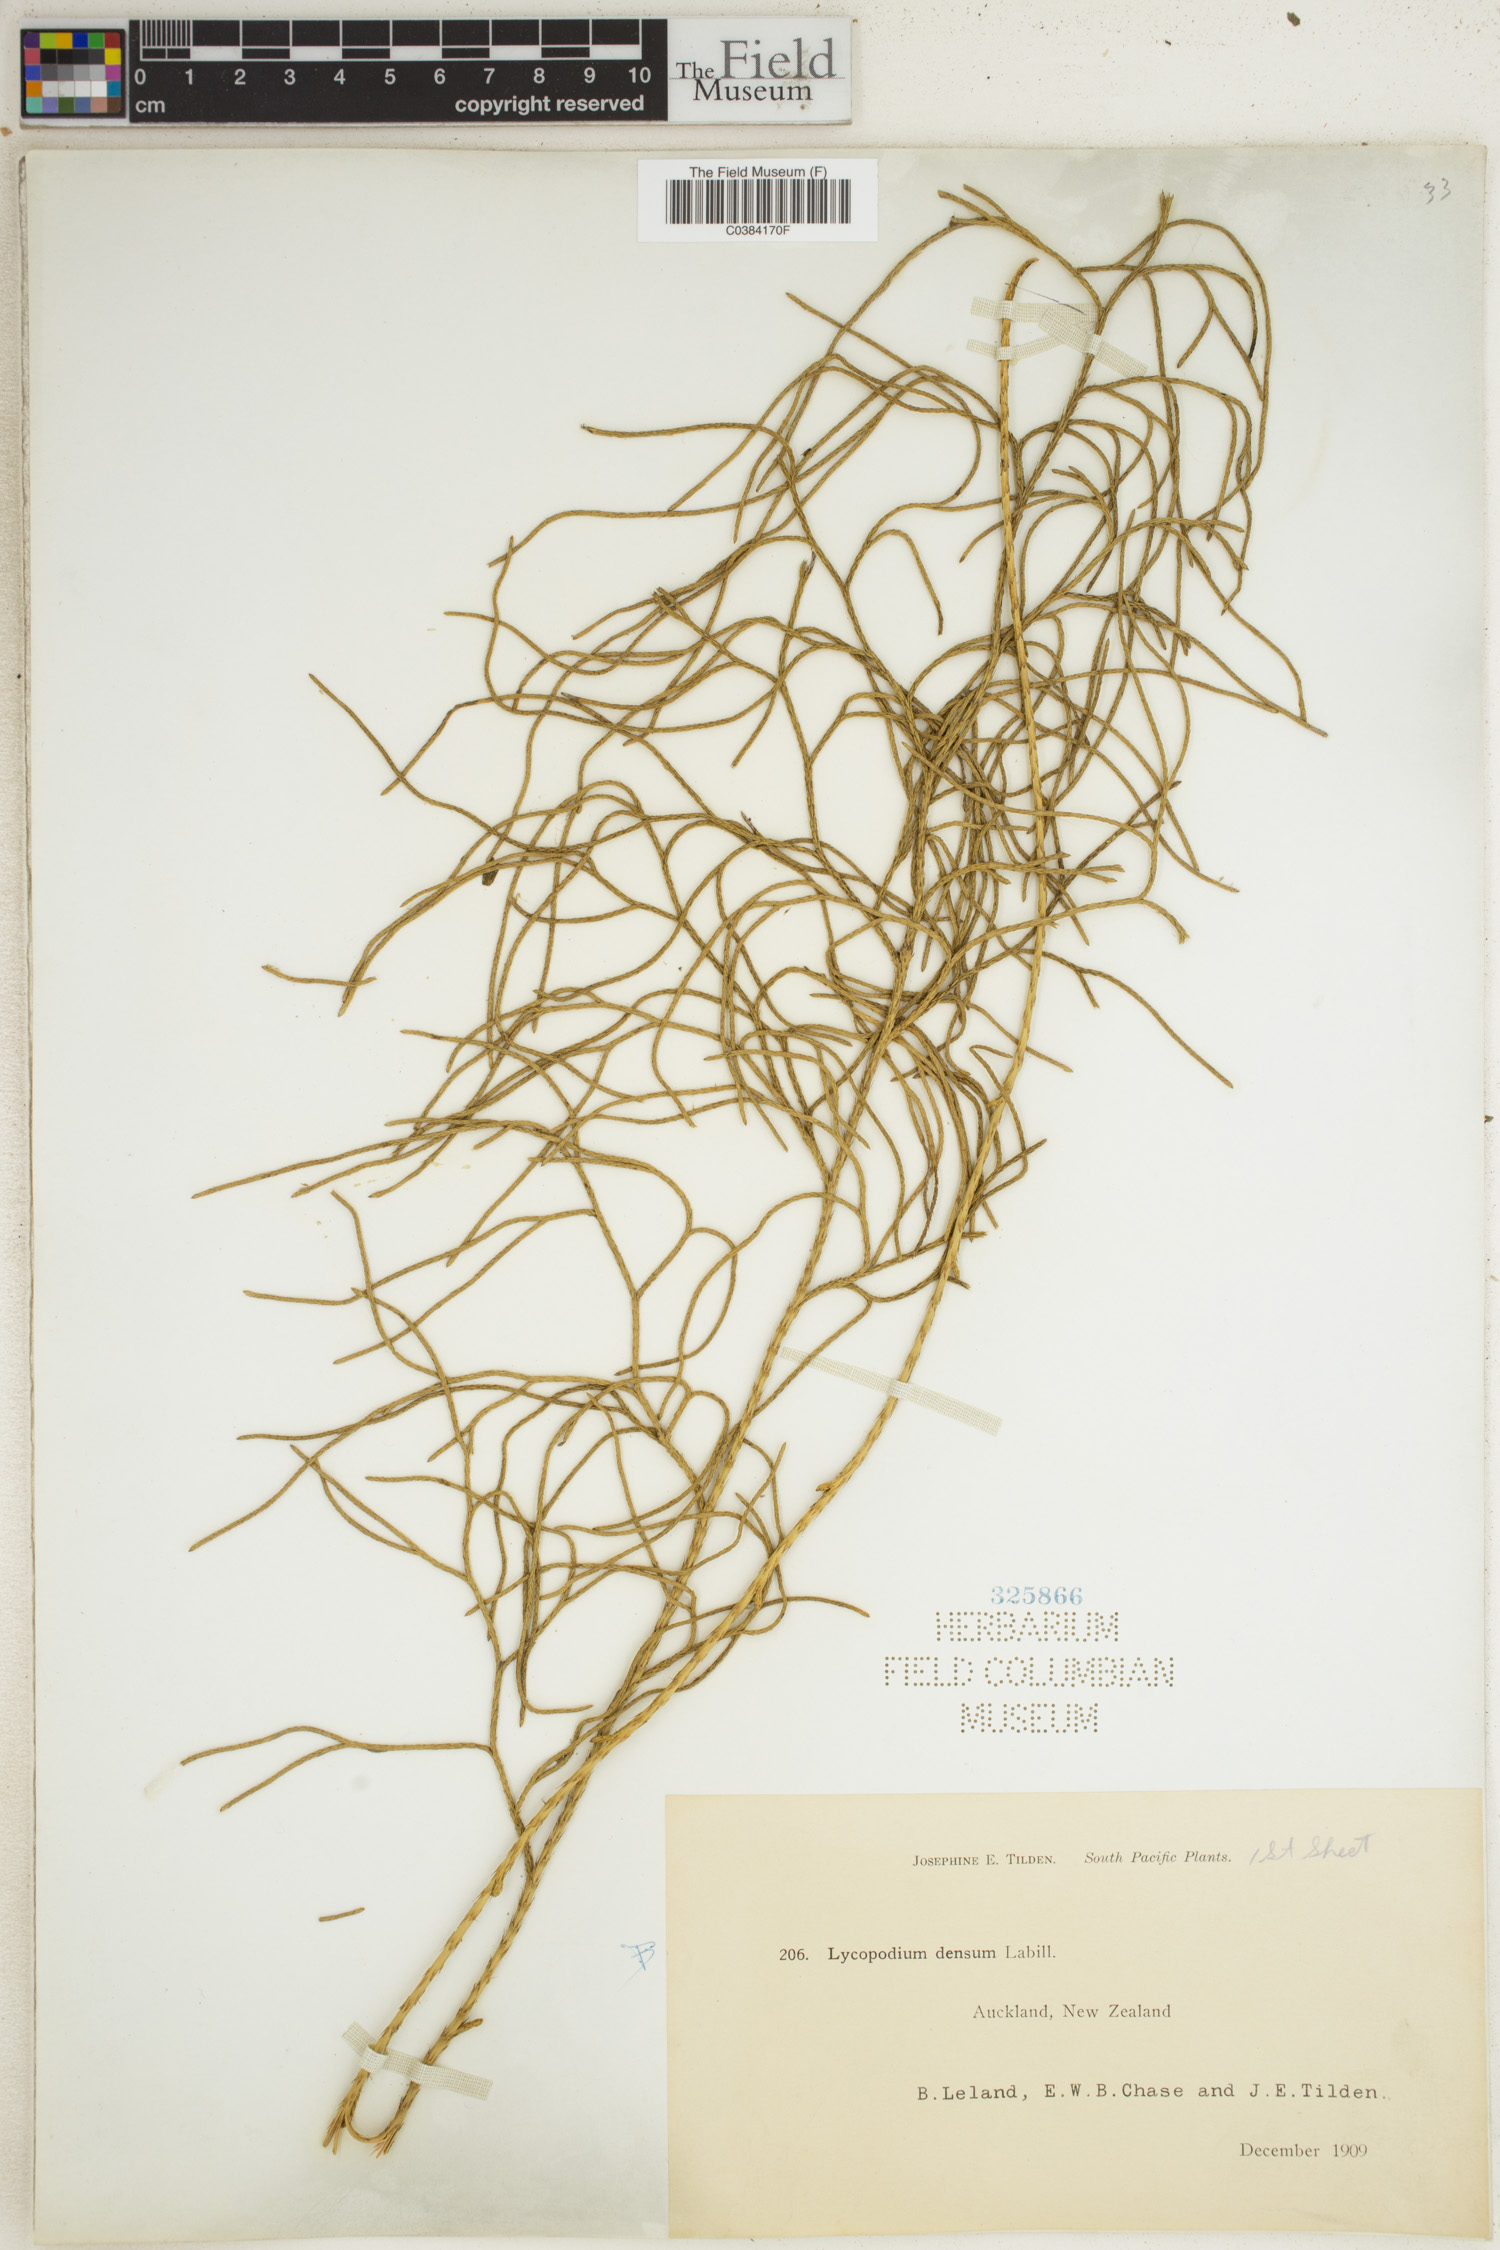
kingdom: Plantae
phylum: Tracheophyta
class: Lycopodiopsida
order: Lycopodiales
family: Lycopodiaceae
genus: Huperzia
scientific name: Huperzia selago
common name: Northern firmoss
